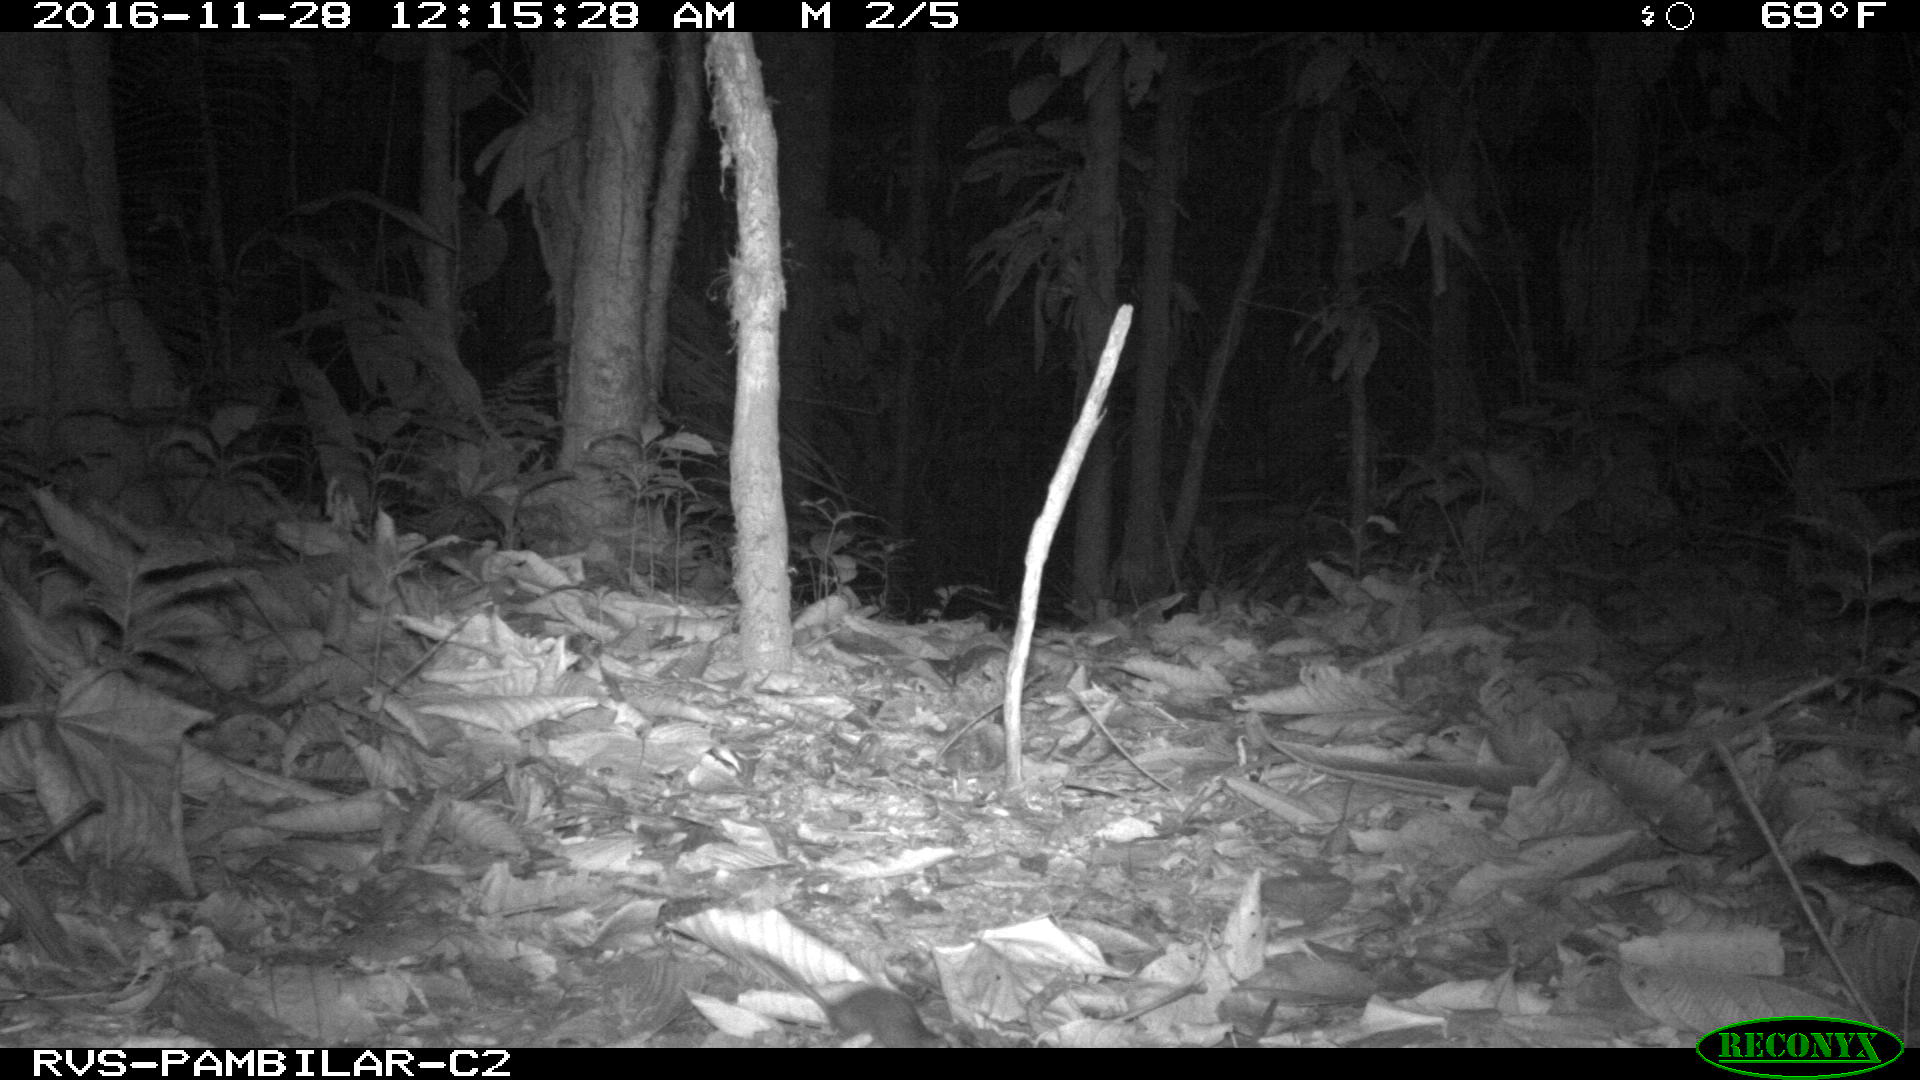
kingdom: Animalia
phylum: Chordata
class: Mammalia
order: Rodentia
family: Echimyidae
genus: Proechimys
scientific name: Proechimys
